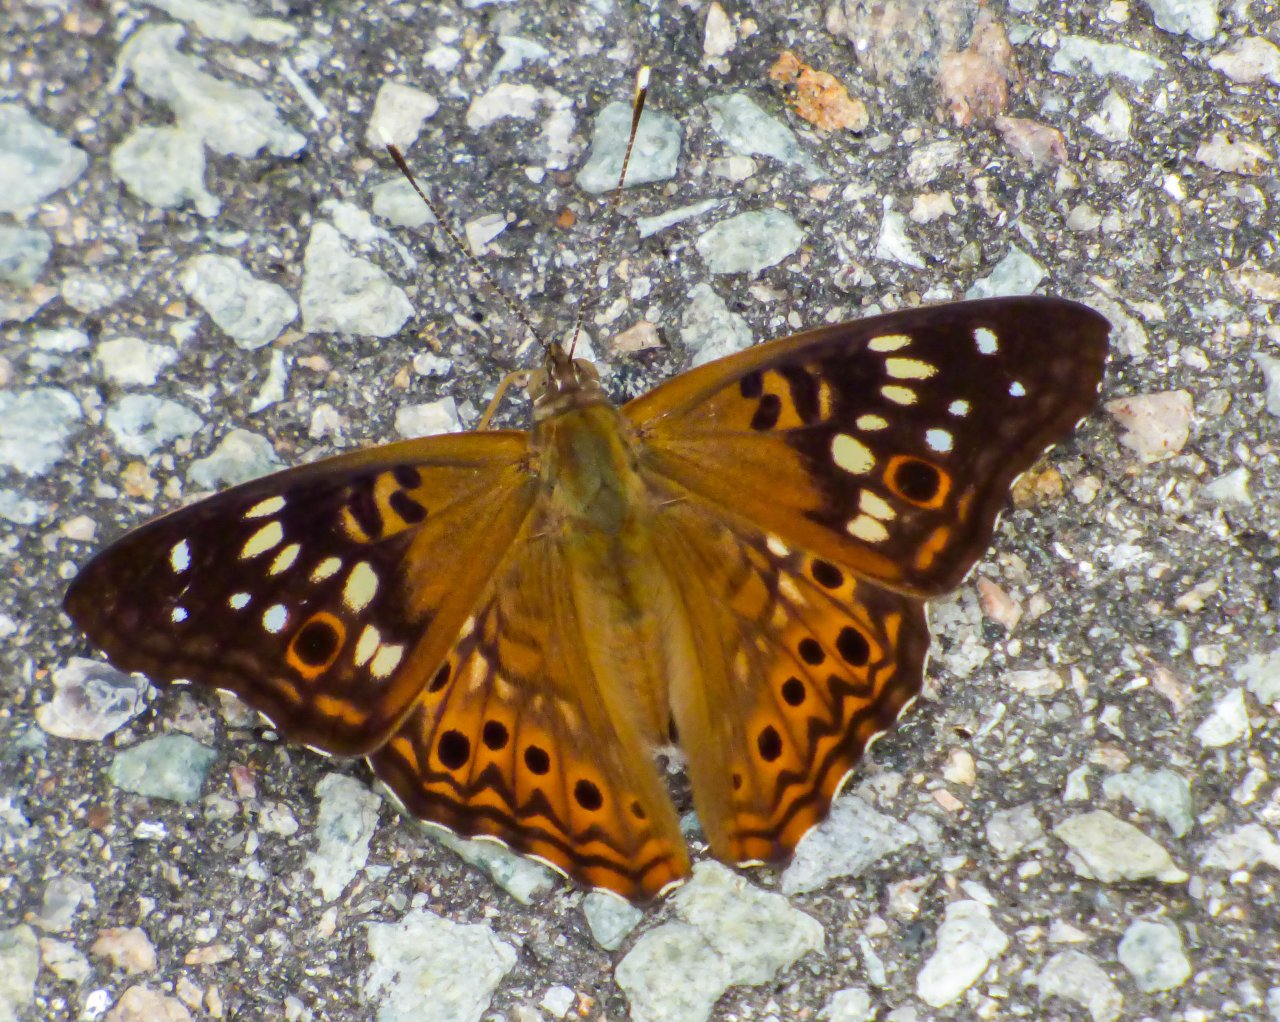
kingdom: Animalia
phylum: Arthropoda
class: Insecta
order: Lepidoptera
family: Nymphalidae
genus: Asterocampa
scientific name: Asterocampa celtis
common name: Hackberry Emperor
